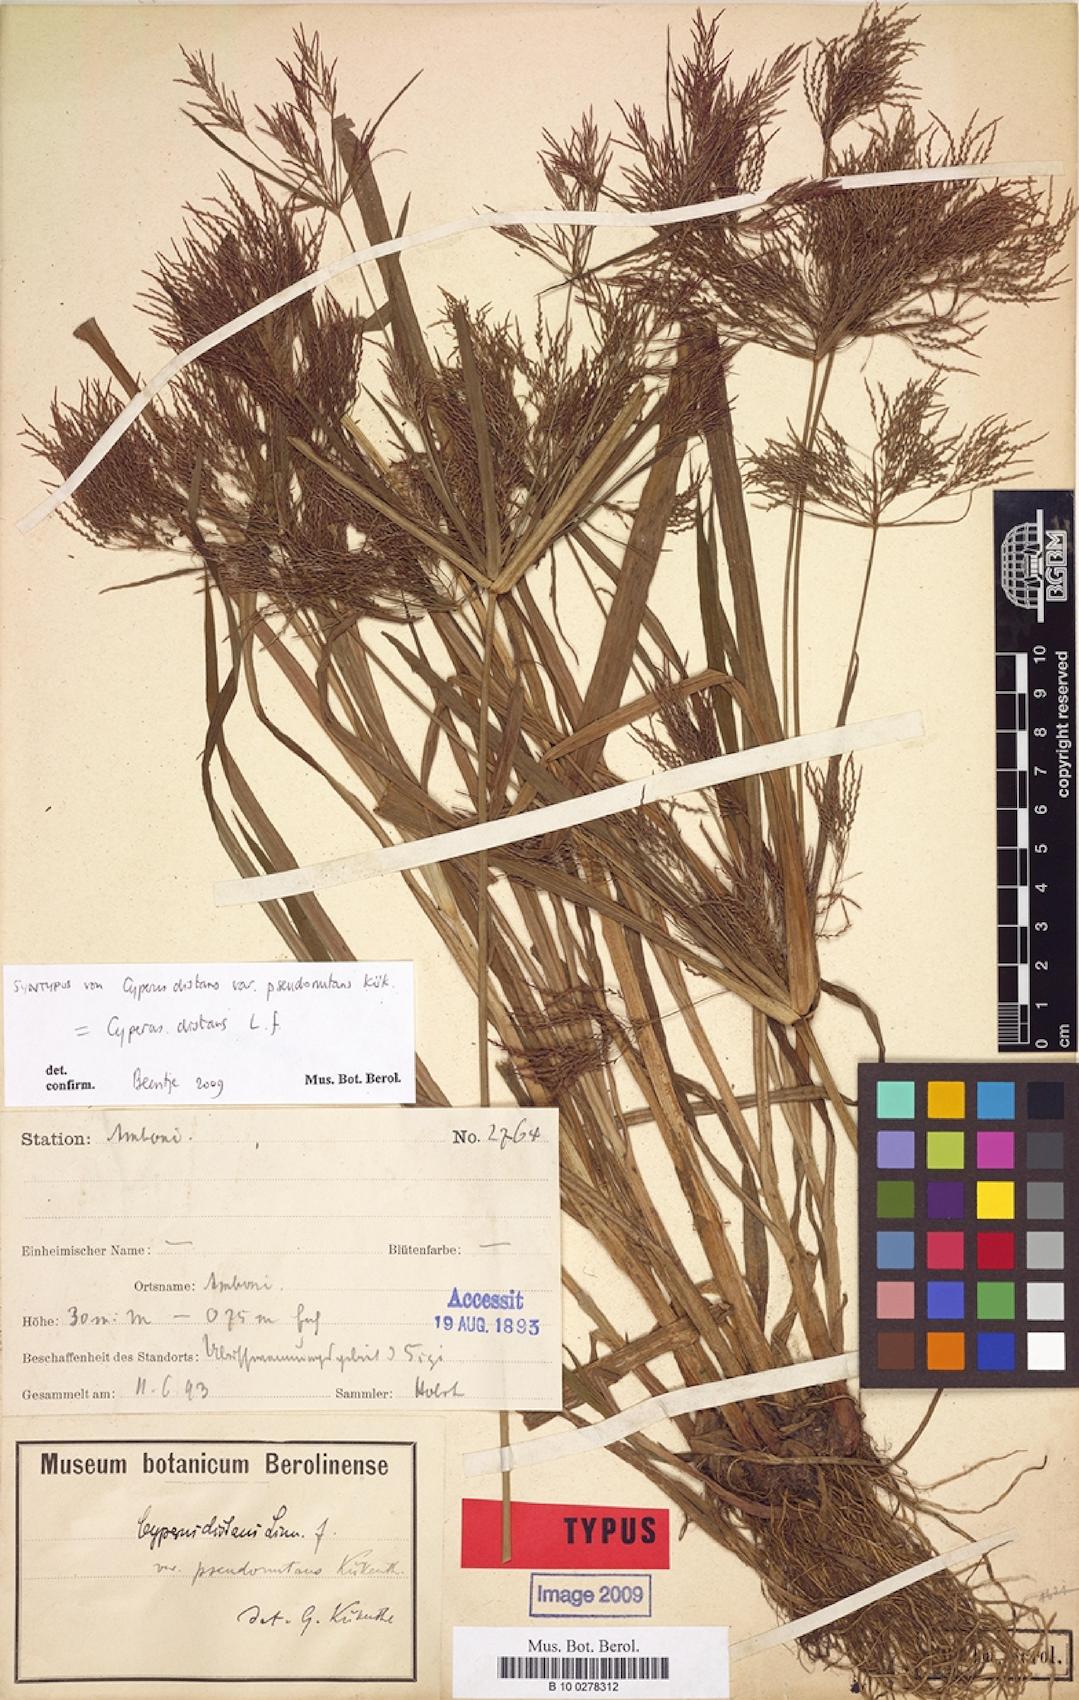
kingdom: Plantae
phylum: Tracheophyta
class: Liliopsida
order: Poales
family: Cyperaceae
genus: Cyperus
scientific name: Cyperus distans
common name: Slender cyperus
